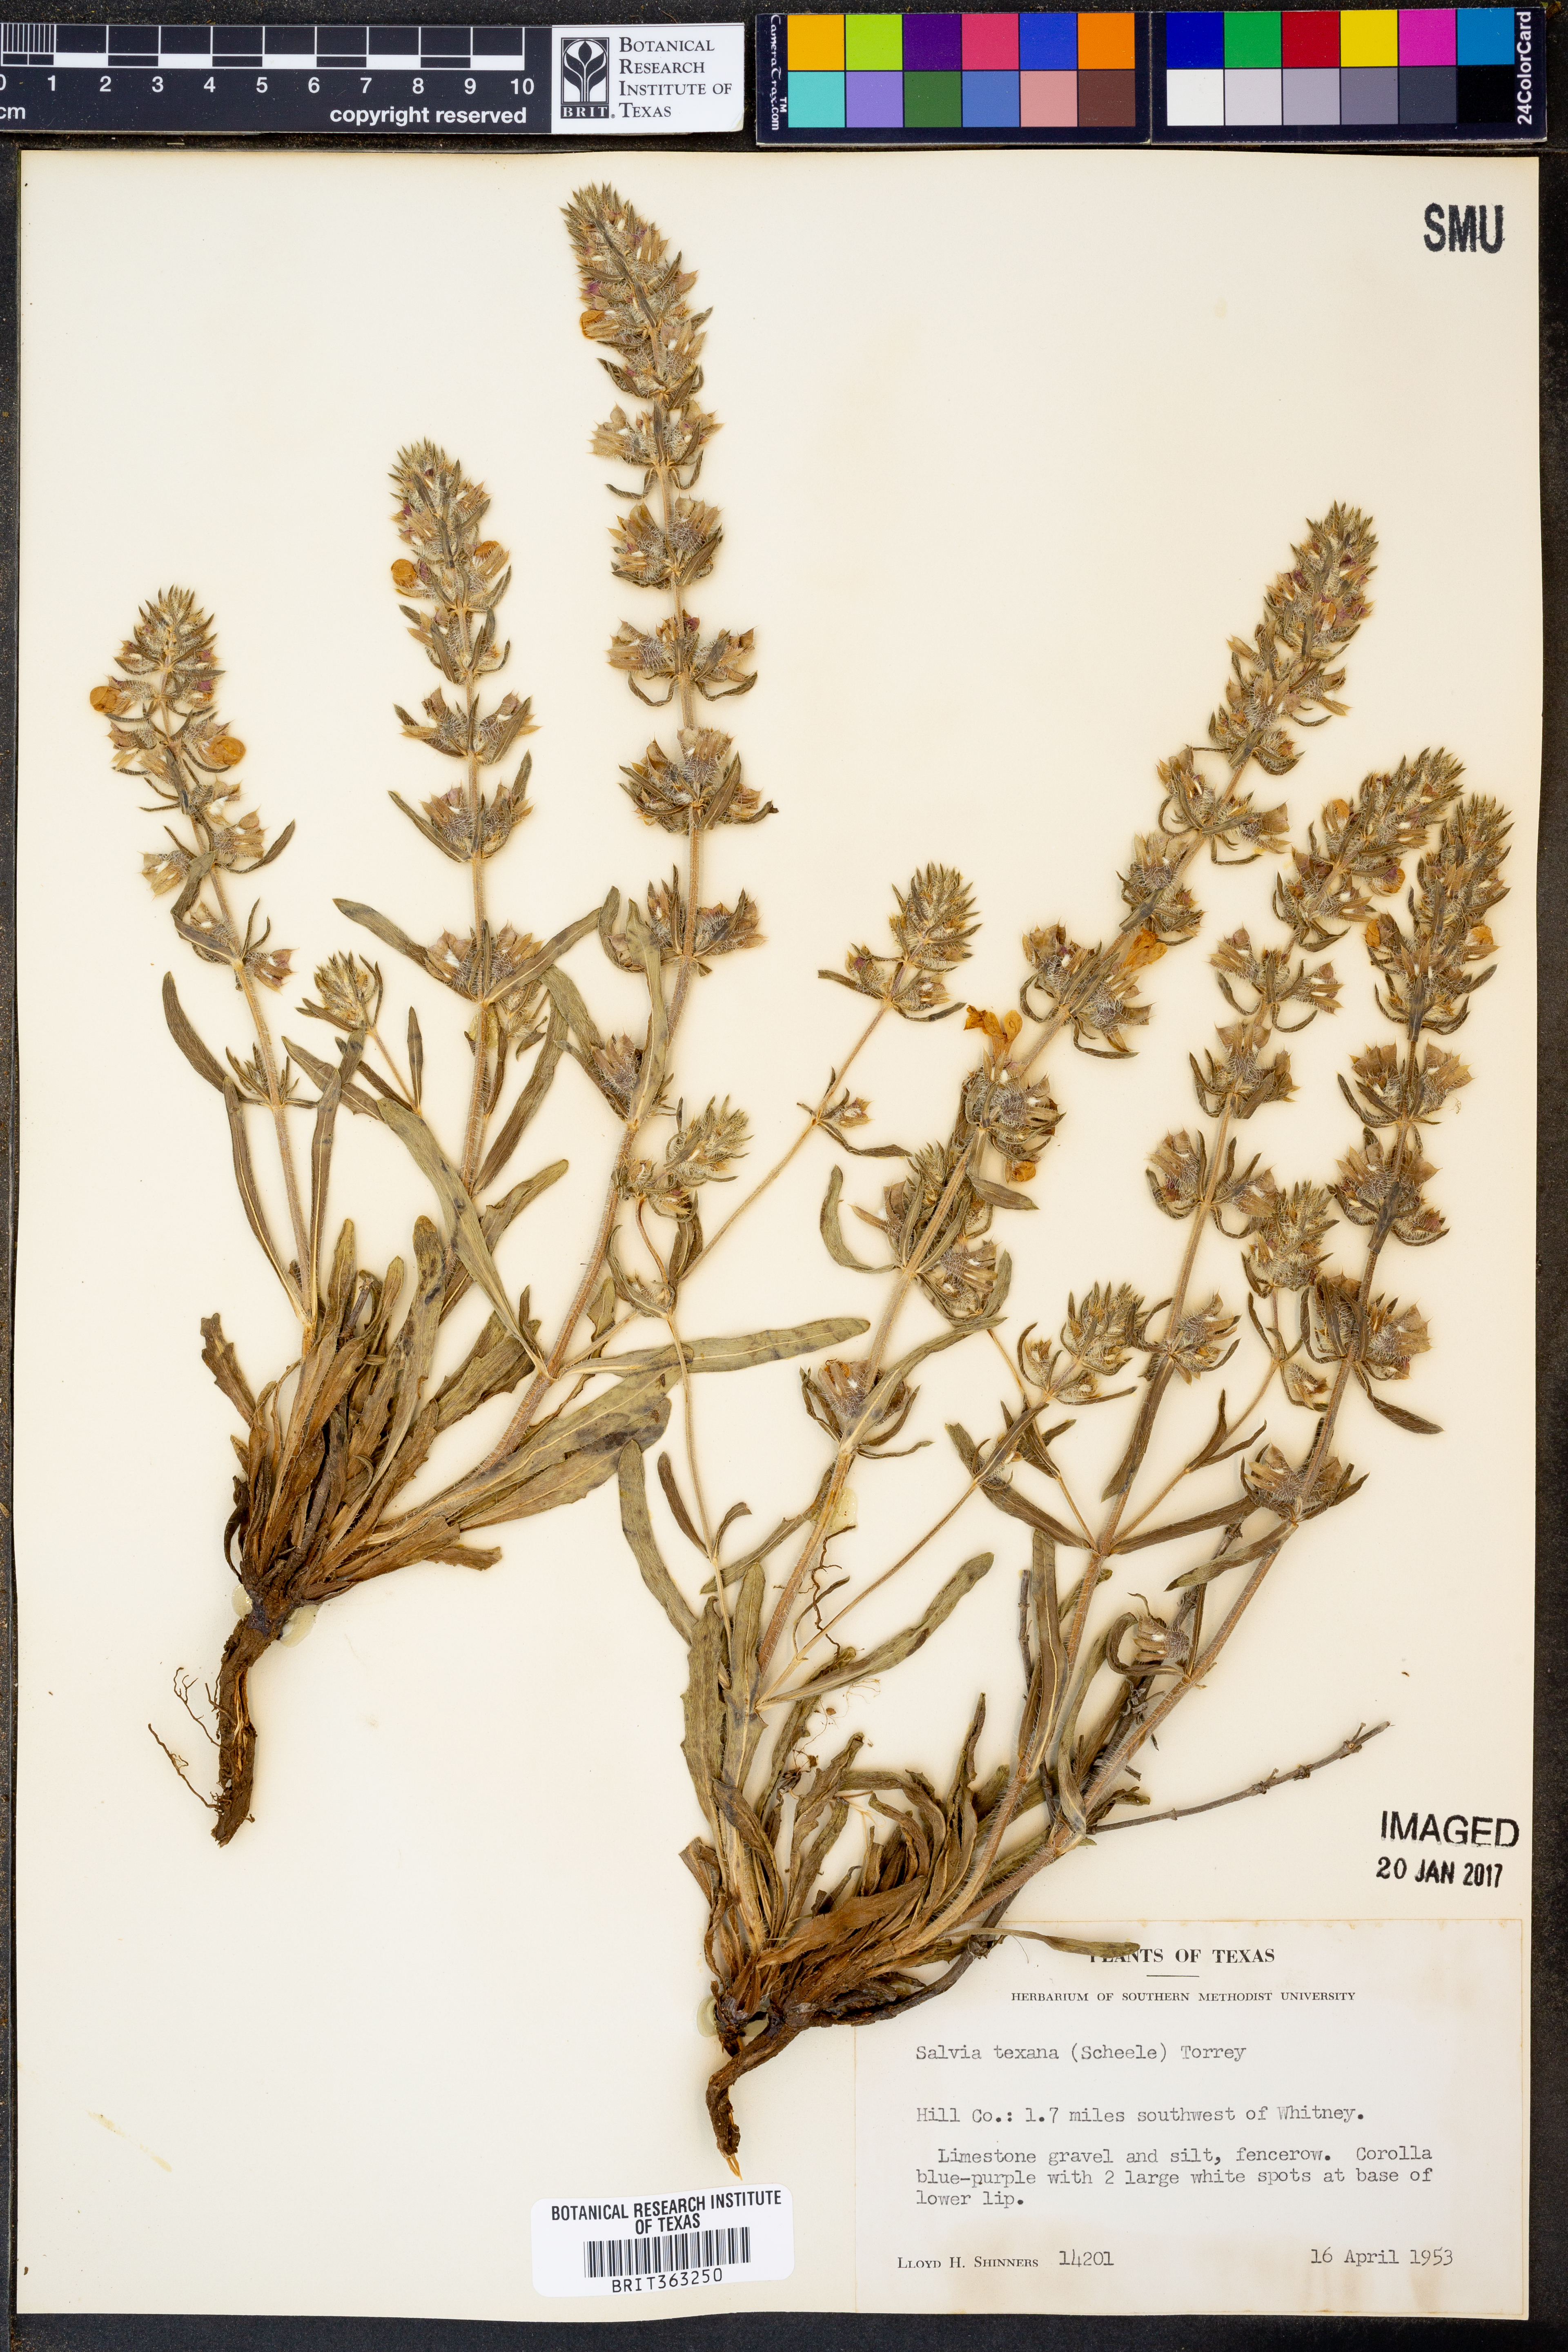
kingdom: Plantae
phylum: Tracheophyta
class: Magnoliopsida
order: Lamiales
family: Lamiaceae
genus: Salvia
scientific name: Salvia texana
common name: Texas sage
